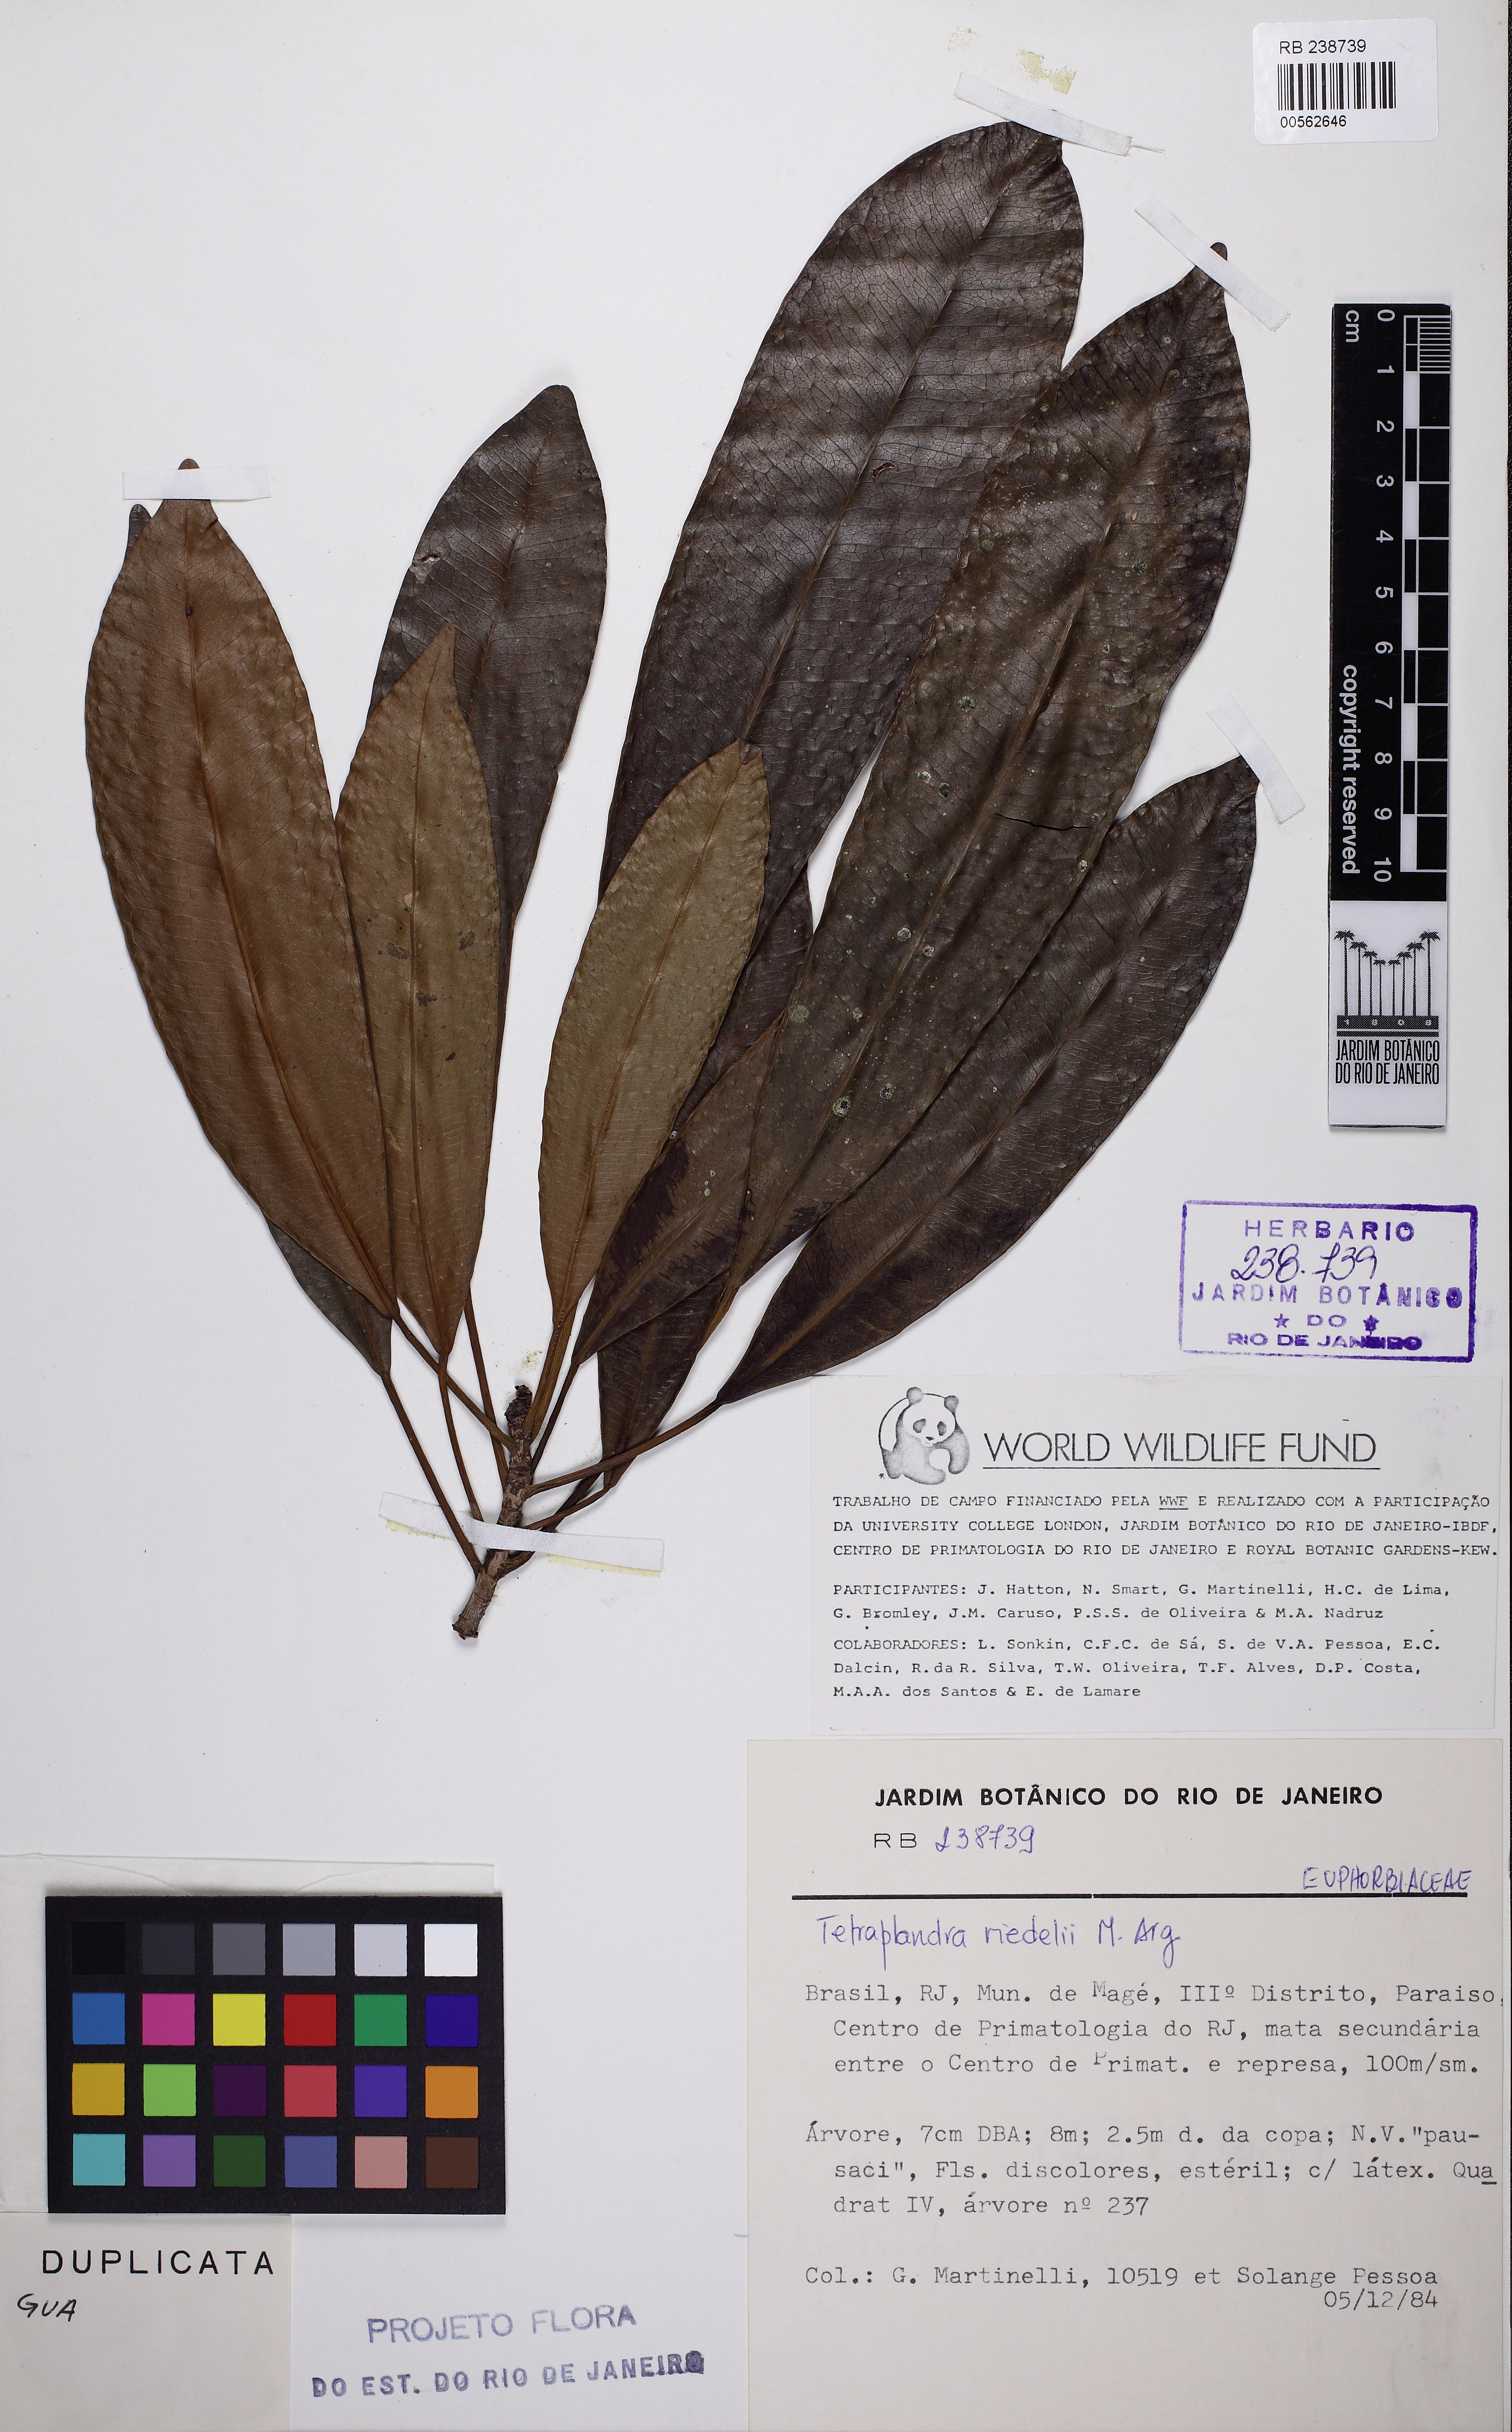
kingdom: Plantae
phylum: Tracheophyta
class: Magnoliopsida
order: Malpighiales
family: Euphorbiaceae
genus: Algernonia
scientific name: Algernonia riedelii
